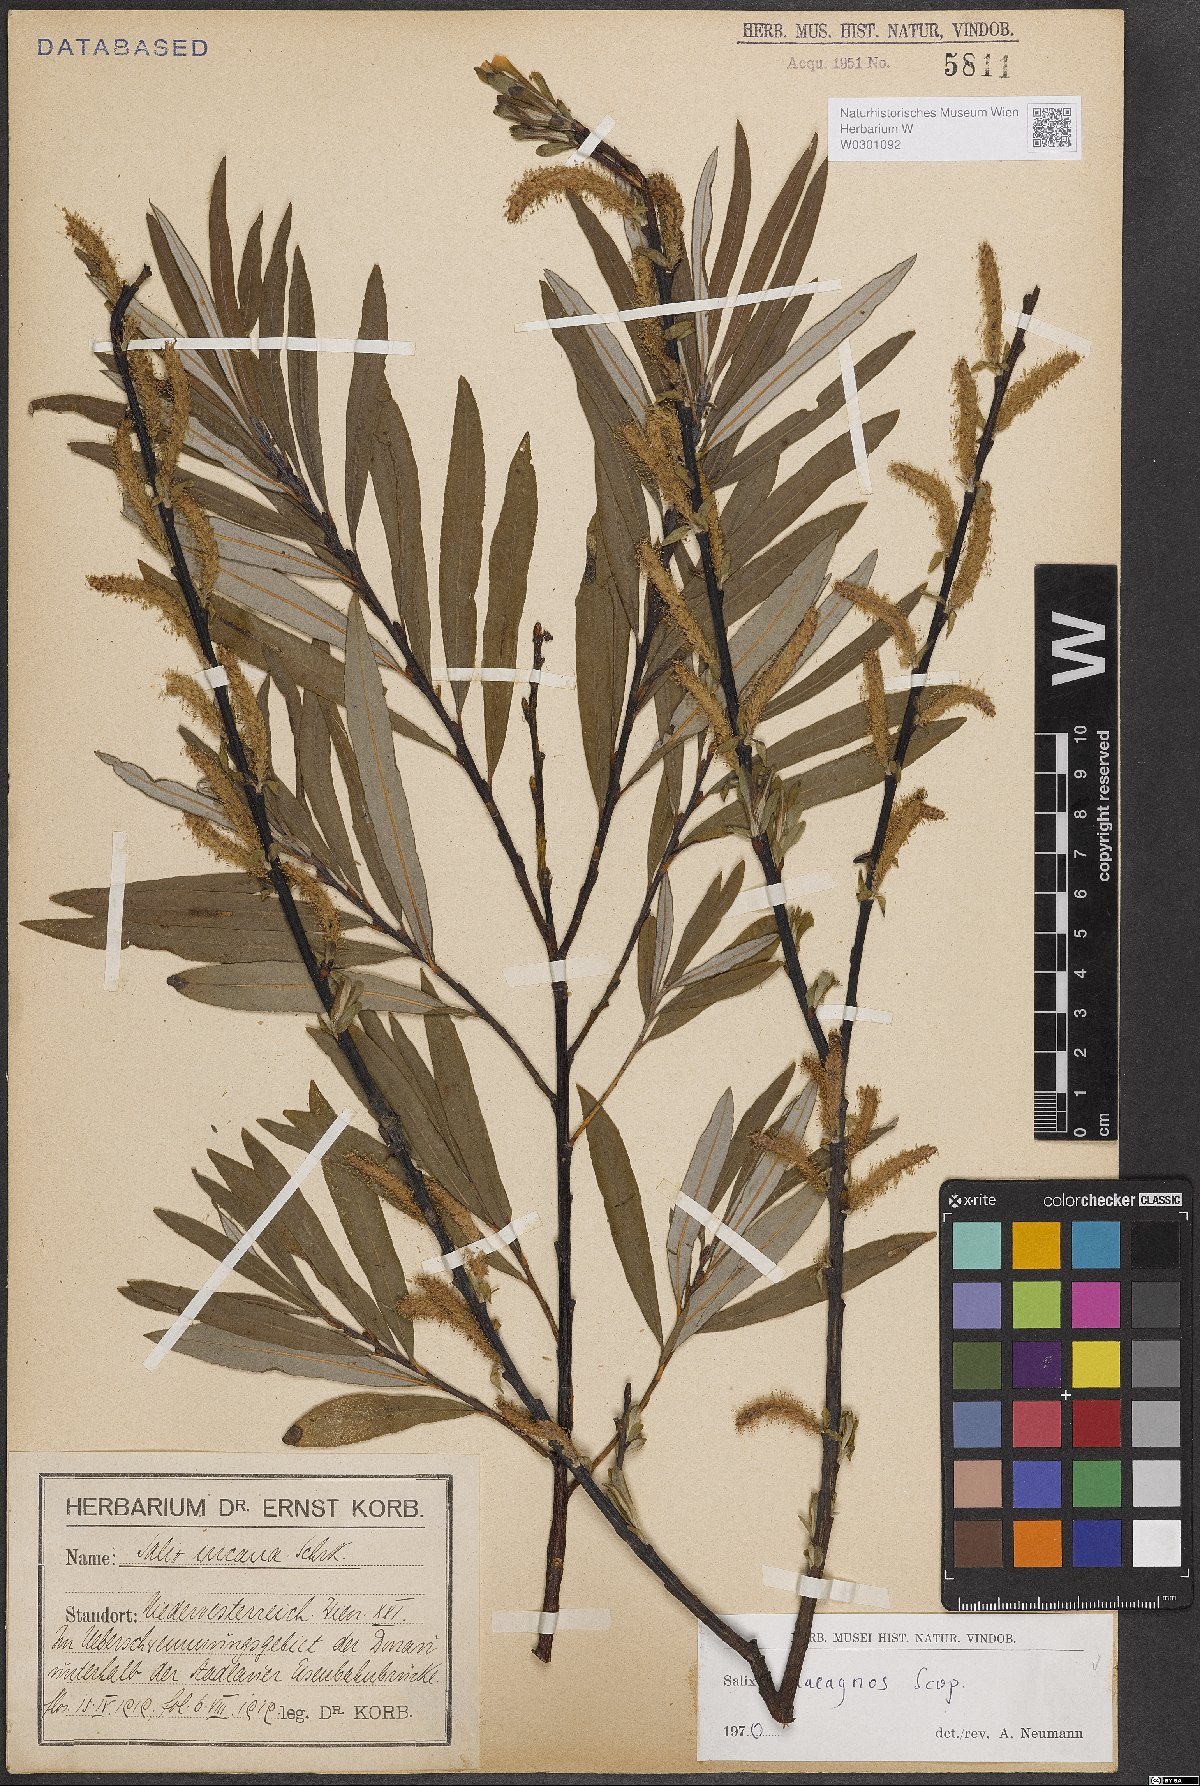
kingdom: Plantae
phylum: Tracheophyta
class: Magnoliopsida
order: Malpighiales
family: Salicaceae
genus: Salix
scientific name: Salix eleagnos
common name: Elaeagnus willow
